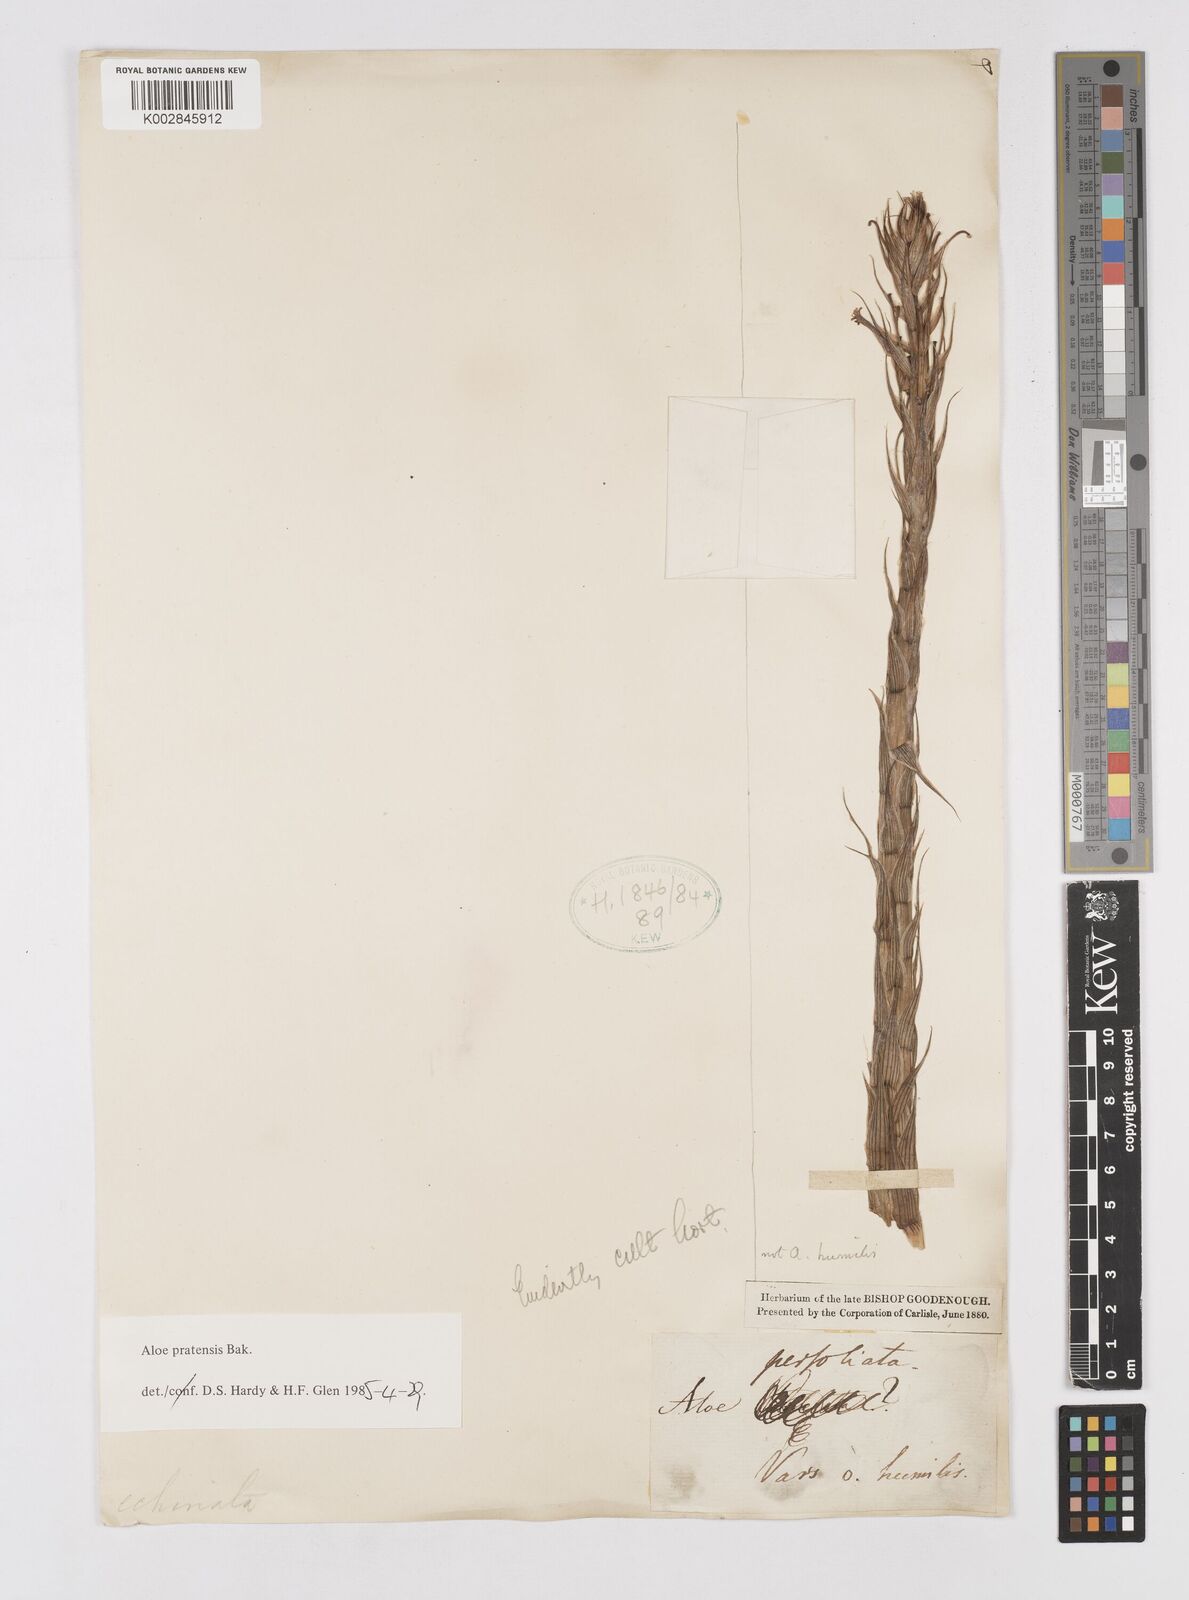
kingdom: Plantae
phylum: Tracheophyta
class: Liliopsida
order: Asparagales
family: Asphodelaceae
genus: Aloe
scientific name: Aloe pratensis
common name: Meadow aloe
